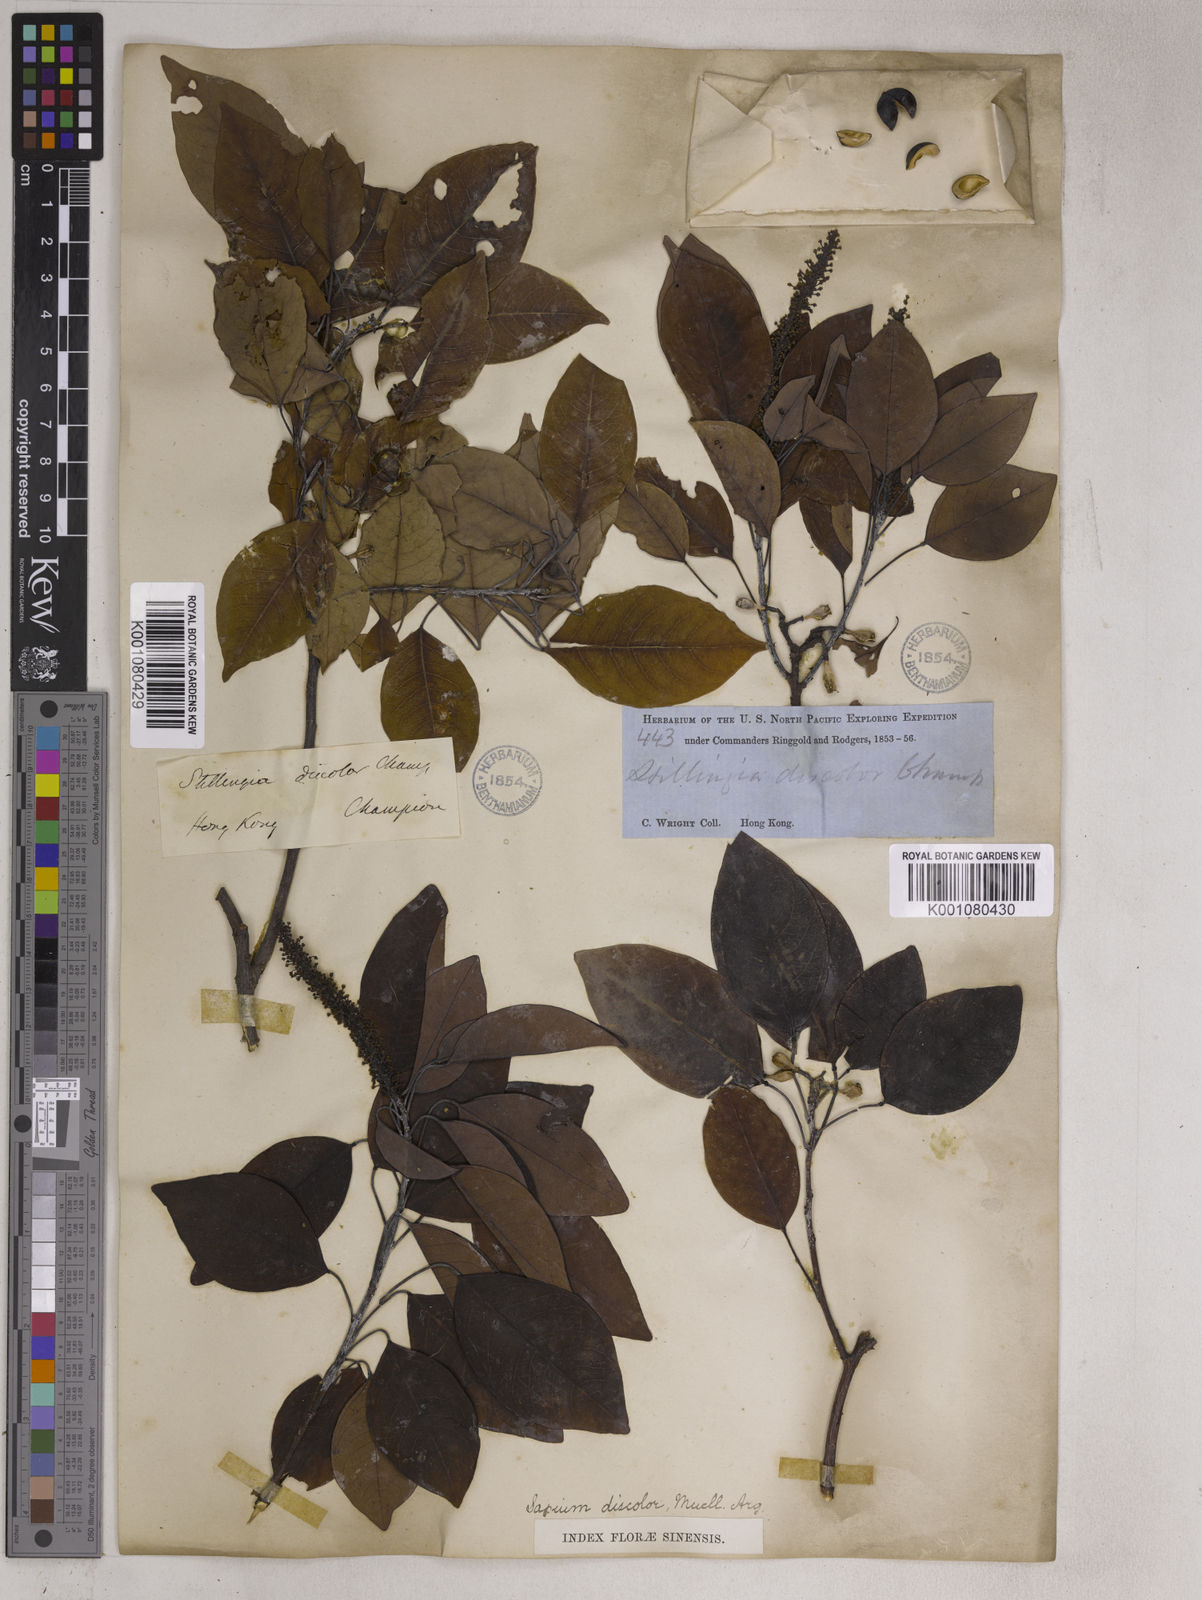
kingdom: Plantae
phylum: Tracheophyta
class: Magnoliopsida
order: Malpighiales
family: Euphorbiaceae
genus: Triadica
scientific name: Triadica cochinchinensis
